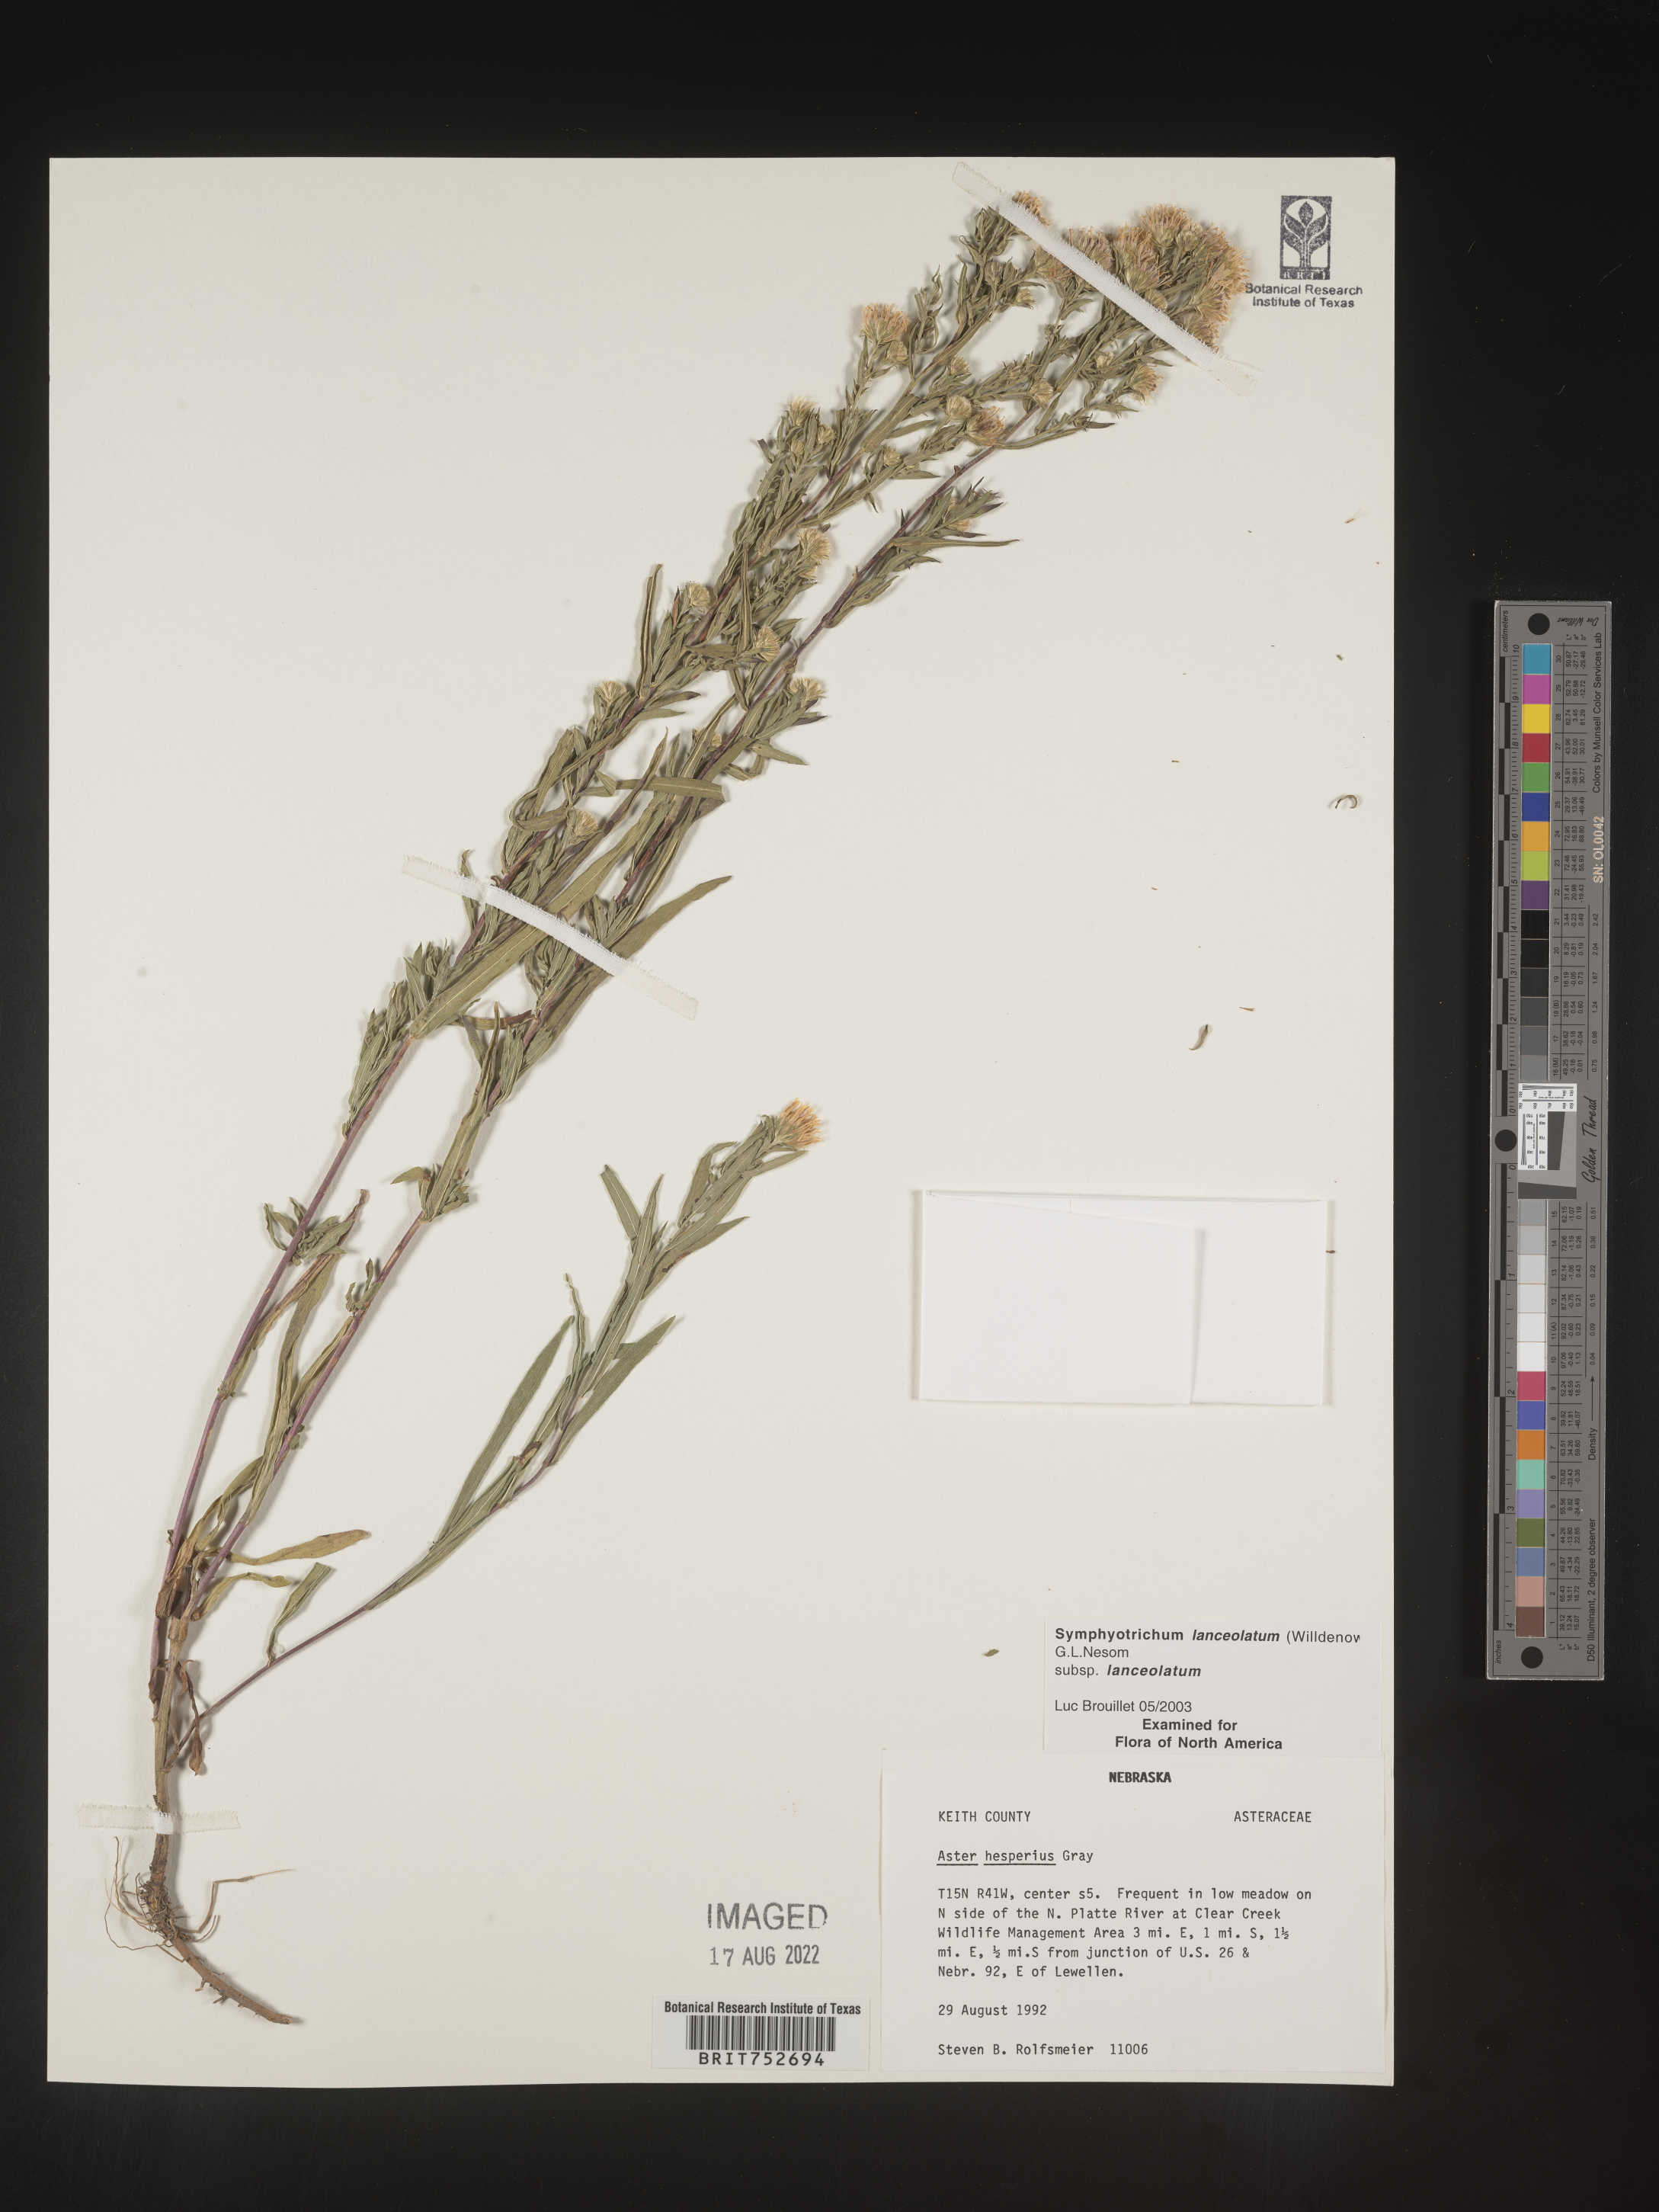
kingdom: Plantae
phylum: Tracheophyta
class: Magnoliopsida
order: Asterales
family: Asteraceae
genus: Symphyotrichum
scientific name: Symphyotrichum lanceolatum
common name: Panicled aster
